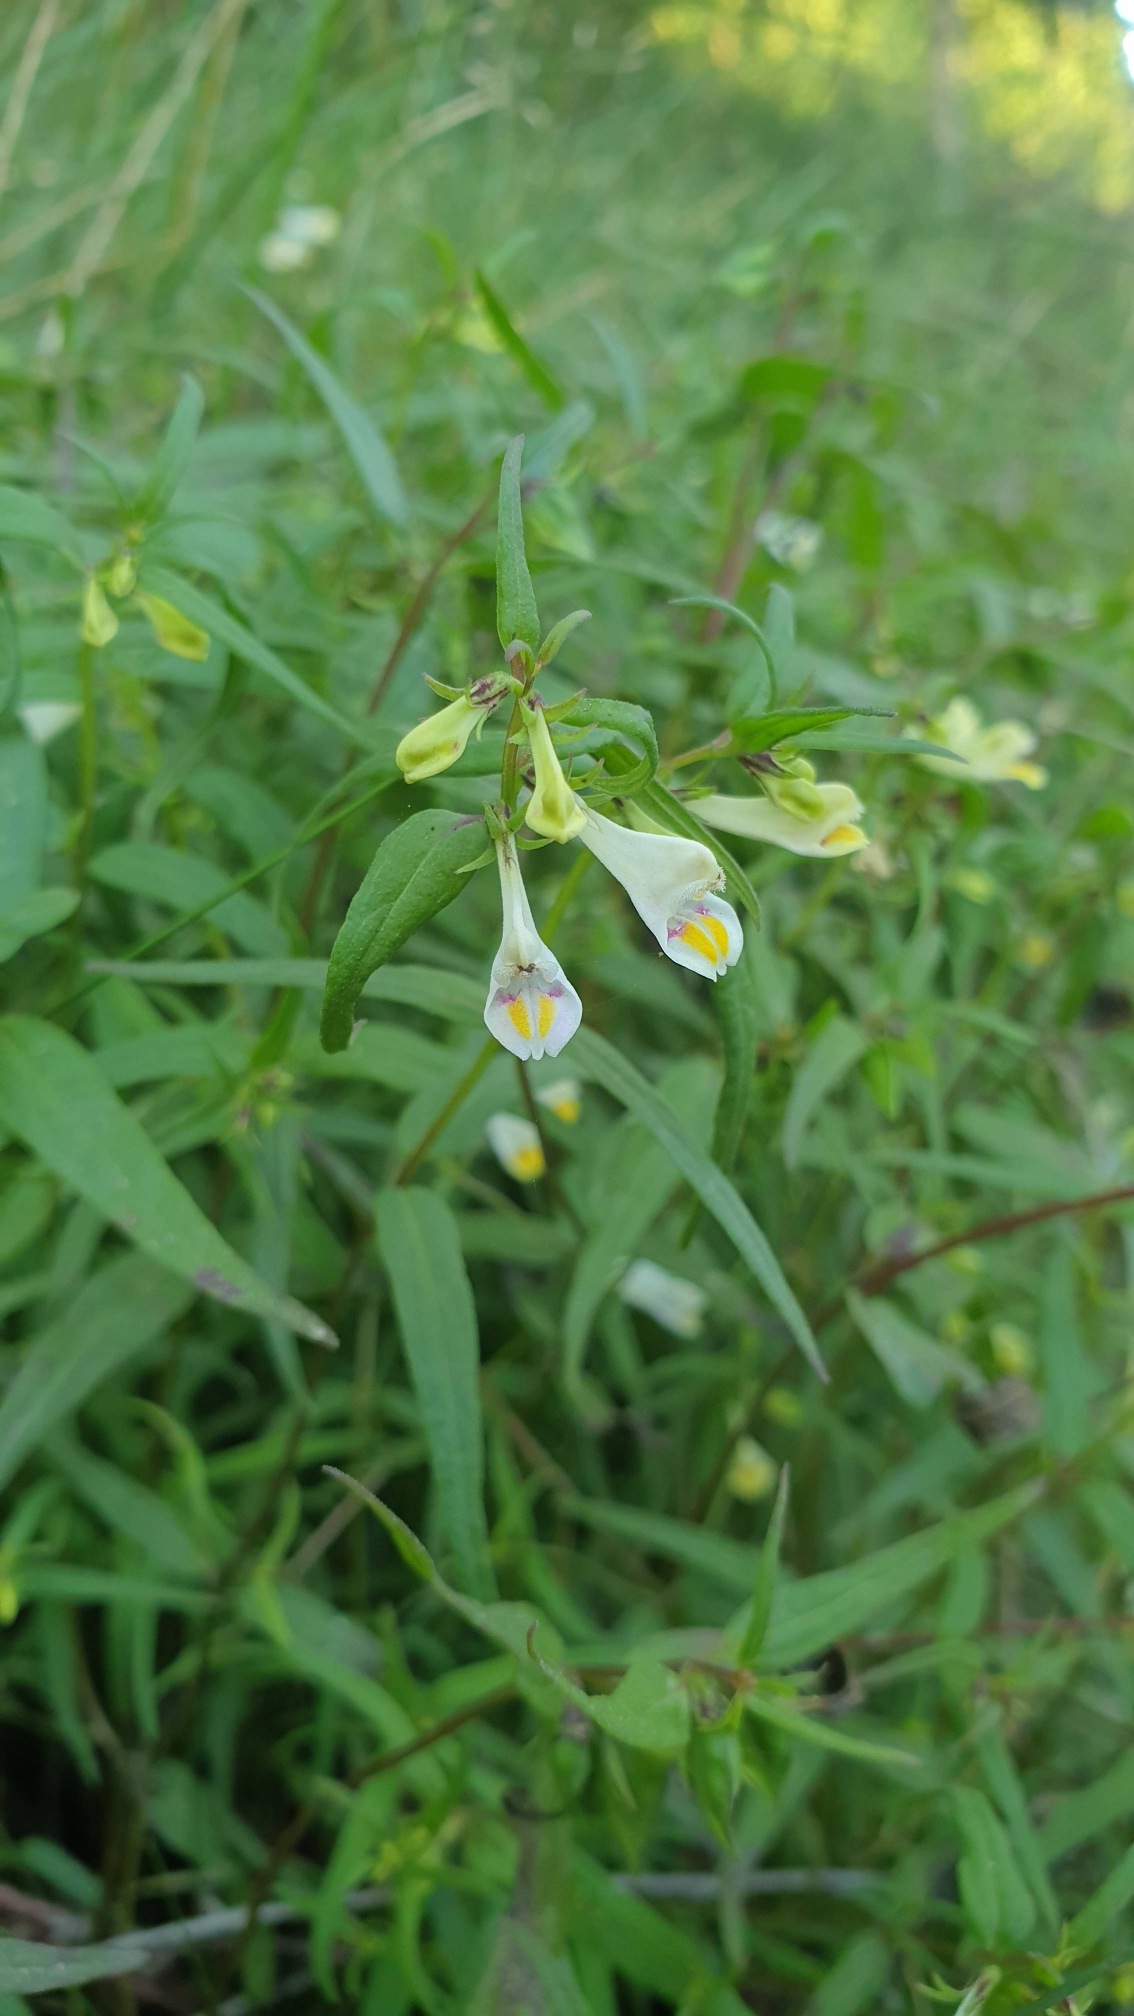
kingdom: Plantae
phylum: Tracheophyta
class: Magnoliopsida
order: Lamiales
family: Orobanchaceae
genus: Melampyrum
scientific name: Melampyrum pratense
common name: Almindelig kohvede
